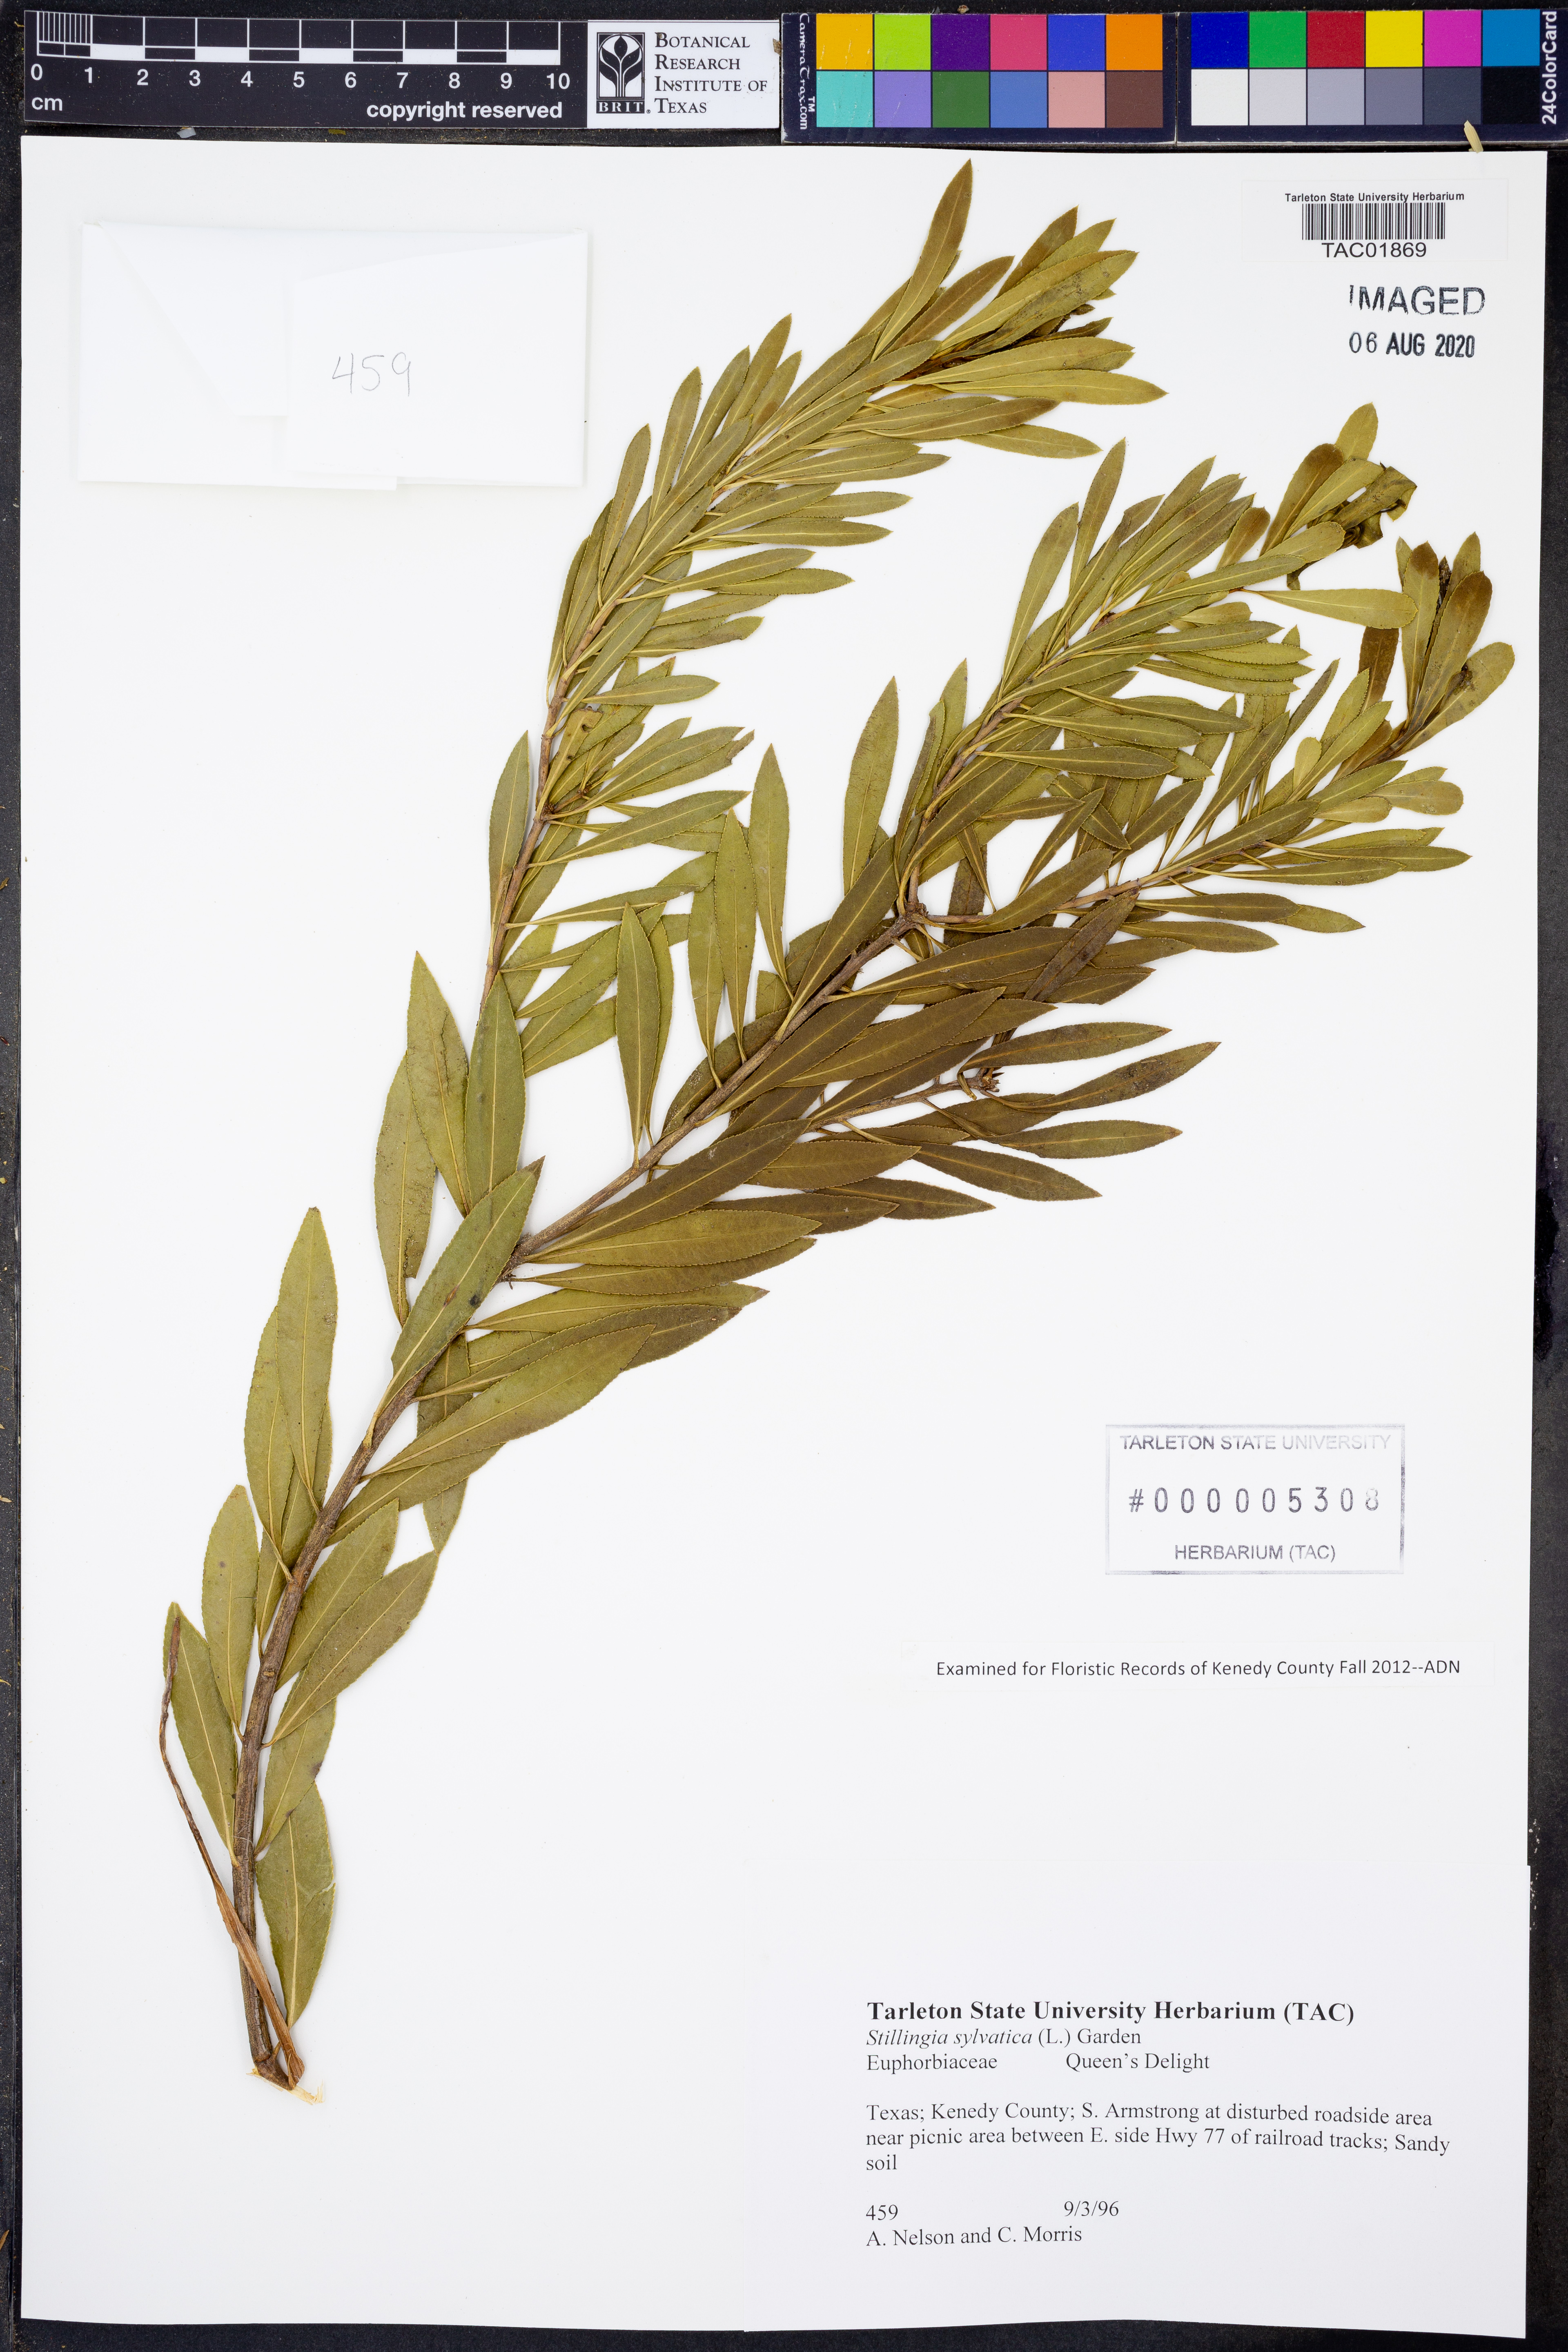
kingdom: Plantae
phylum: Tracheophyta
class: Magnoliopsida
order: Malpighiales
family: Euphorbiaceae
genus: Stillingia
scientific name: Stillingia sylvatica
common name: Queen's-delight
